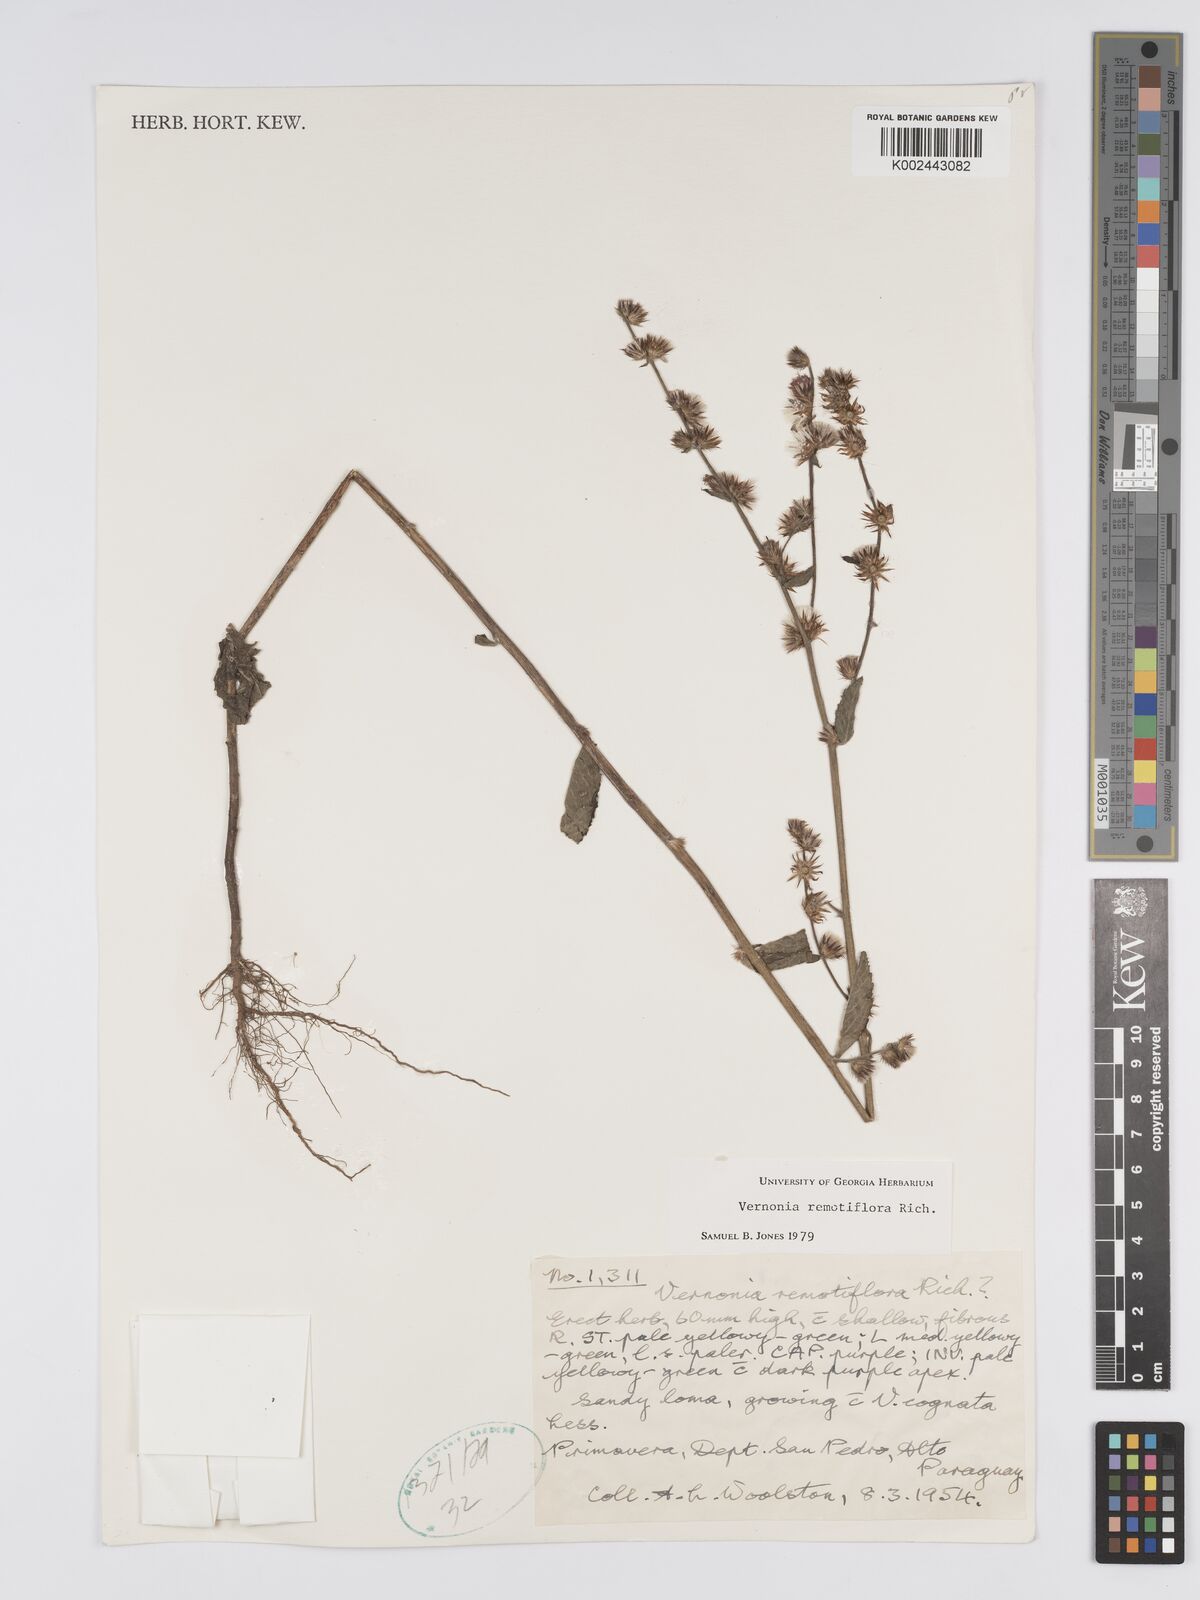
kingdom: Plantae
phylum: Tracheophyta
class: Magnoliopsida
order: Asterales
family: Asteraceae
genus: Lepidaploa
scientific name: Lepidaploa remotiflora
